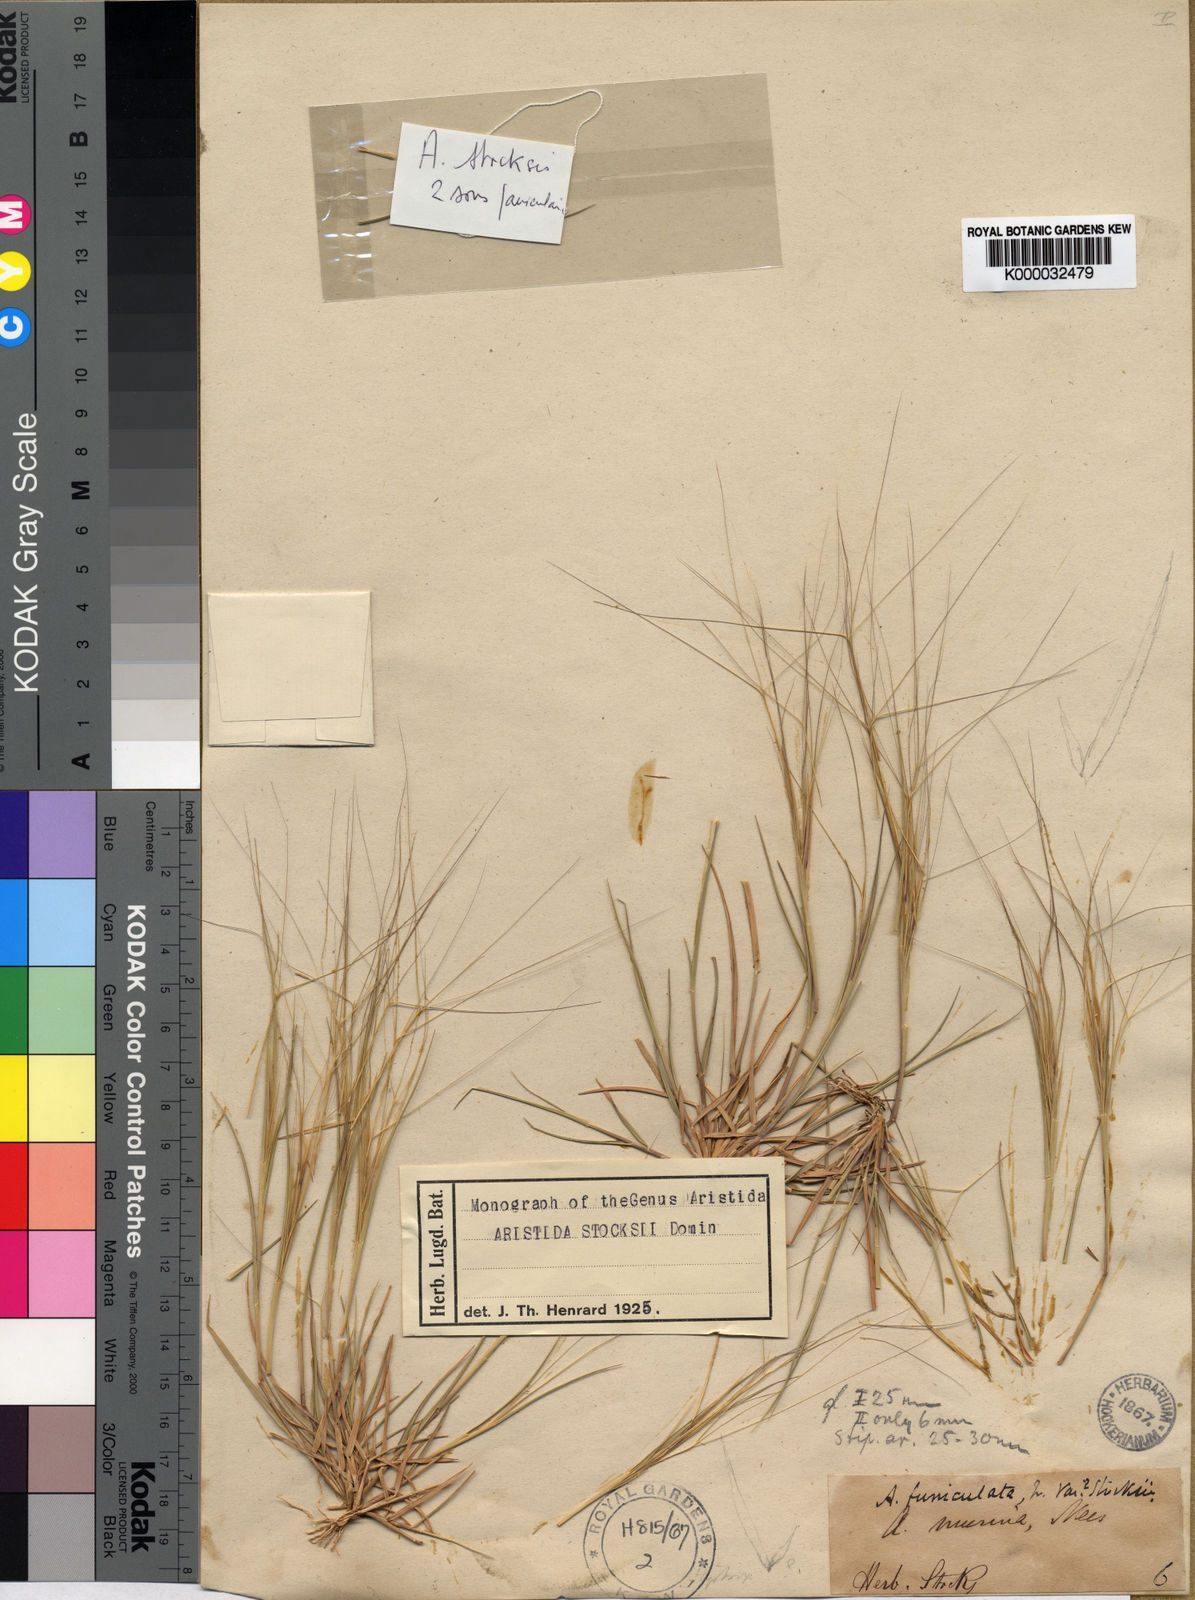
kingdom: Plantae
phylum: Tracheophyta
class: Liliopsida
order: Poales
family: Poaceae
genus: Aristida
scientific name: Aristida stocksii
